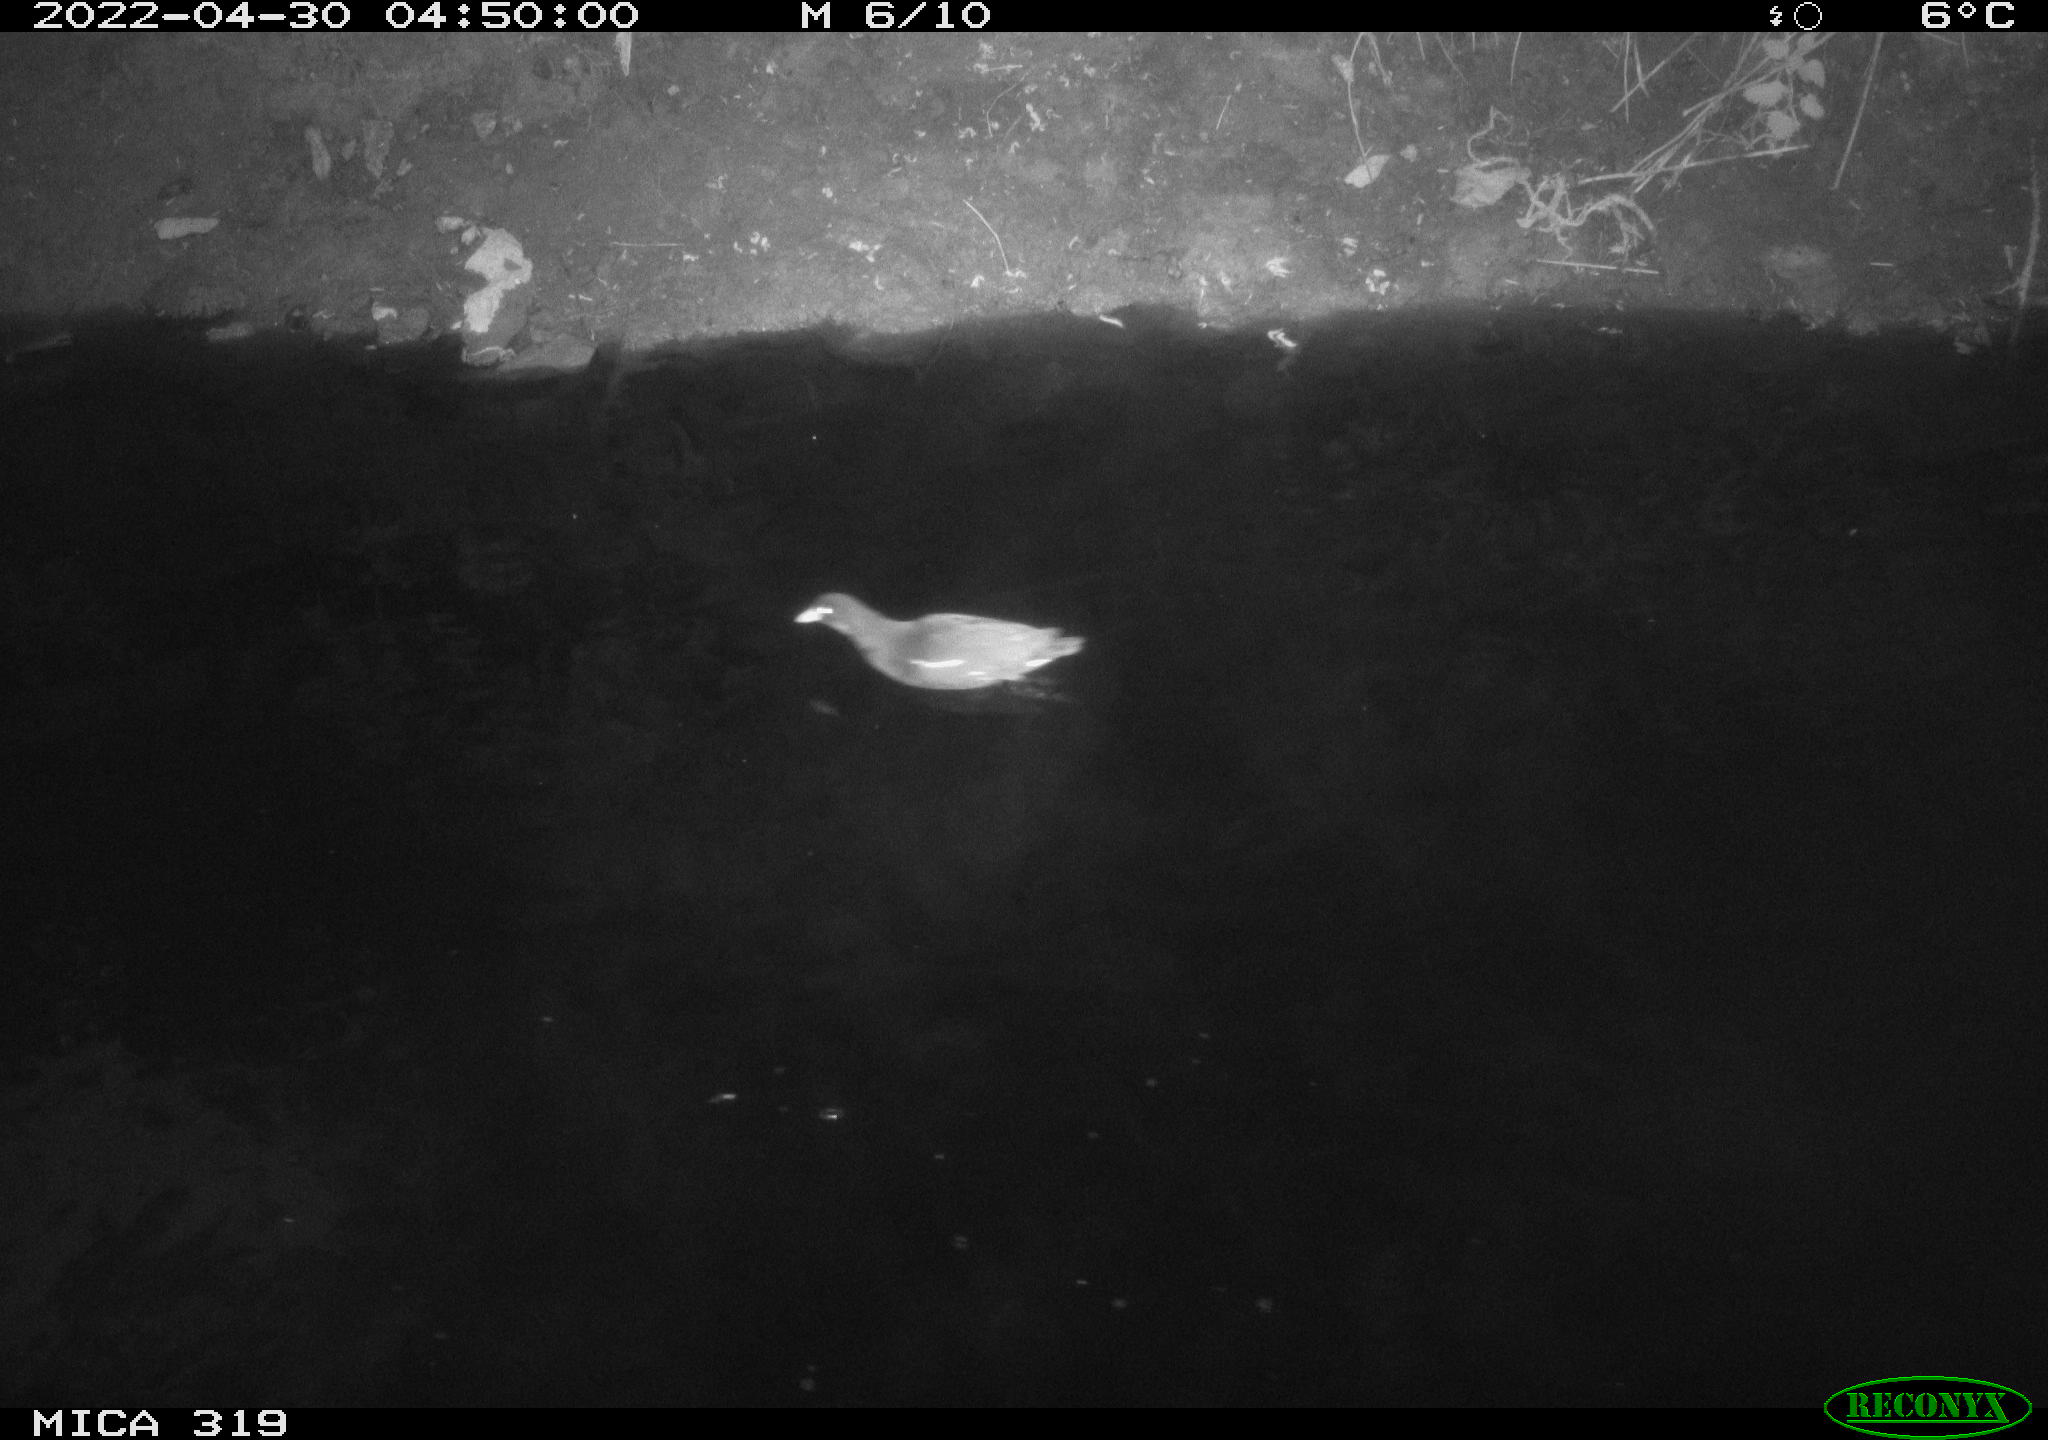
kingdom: Animalia
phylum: Chordata
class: Aves
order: Gruiformes
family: Rallidae
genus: Gallinula
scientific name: Gallinula chloropus
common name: Common moorhen
